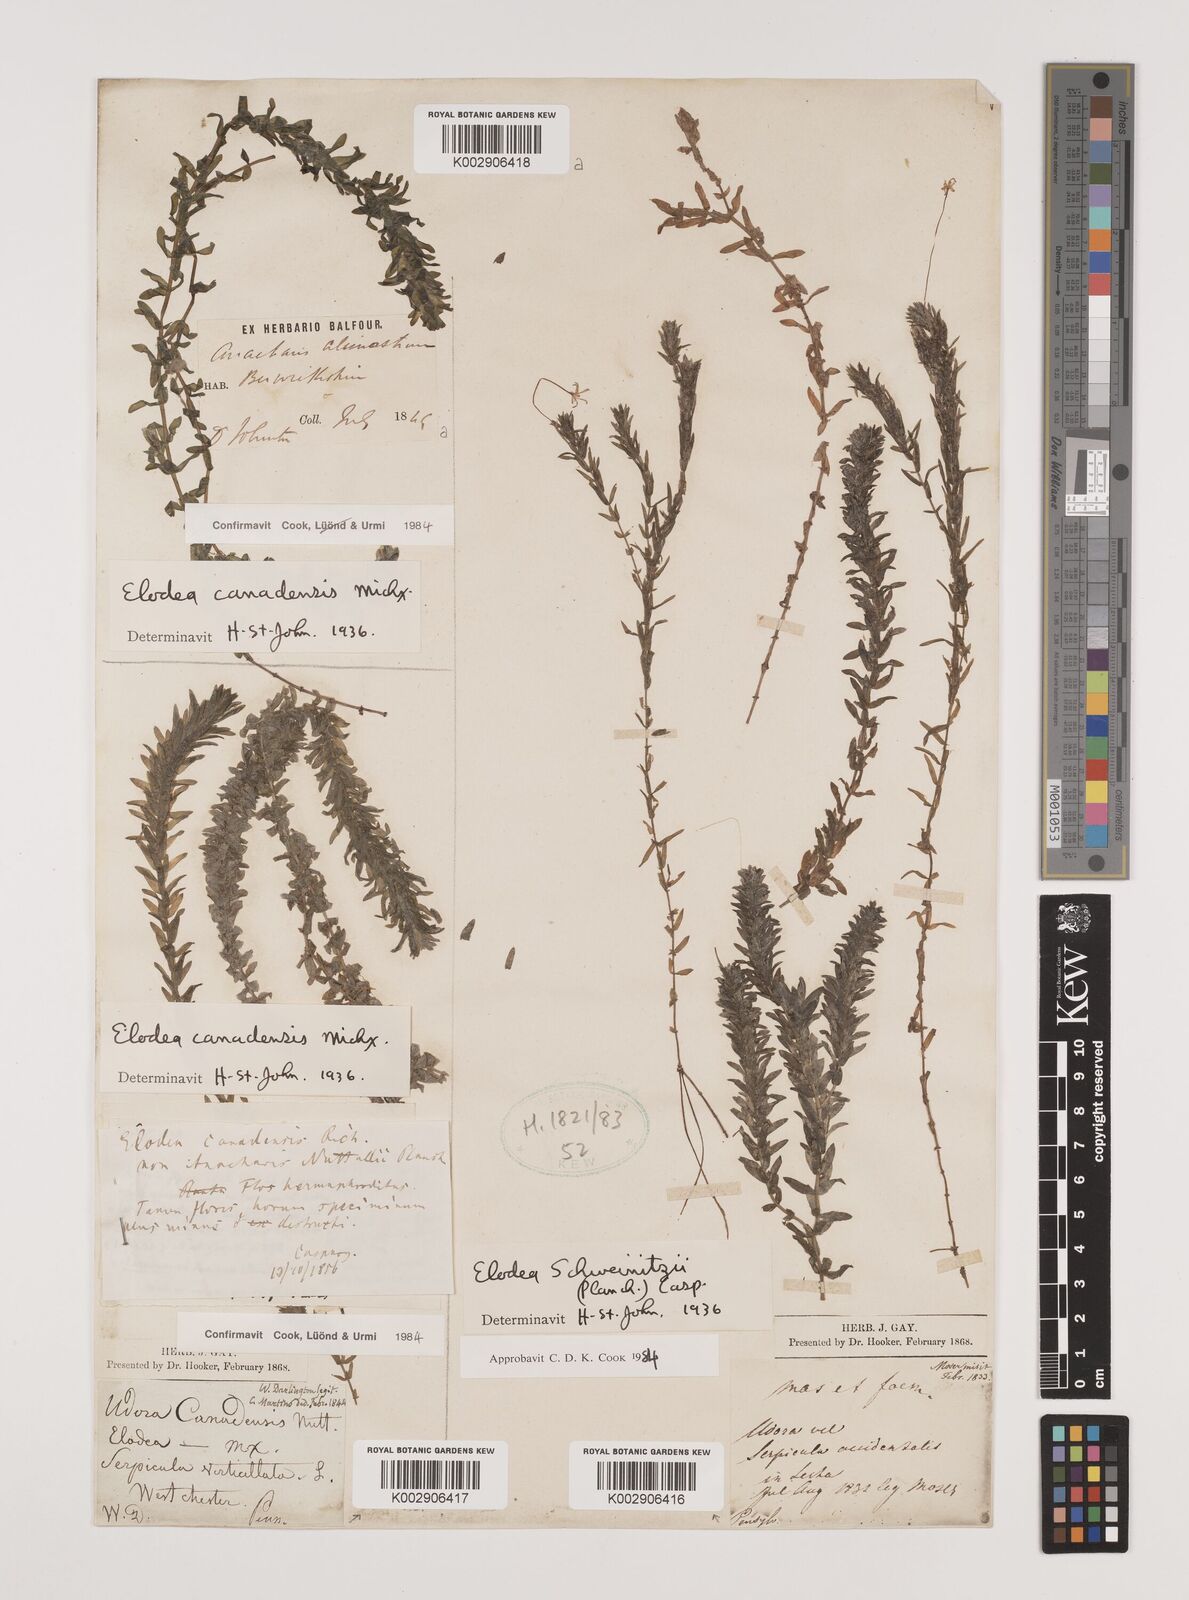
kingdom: Plantae
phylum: Tracheophyta
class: Liliopsida
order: Alismatales
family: Hydrocharitaceae
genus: Elodea
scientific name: Elodea canadensis
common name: Canadian waterweed
